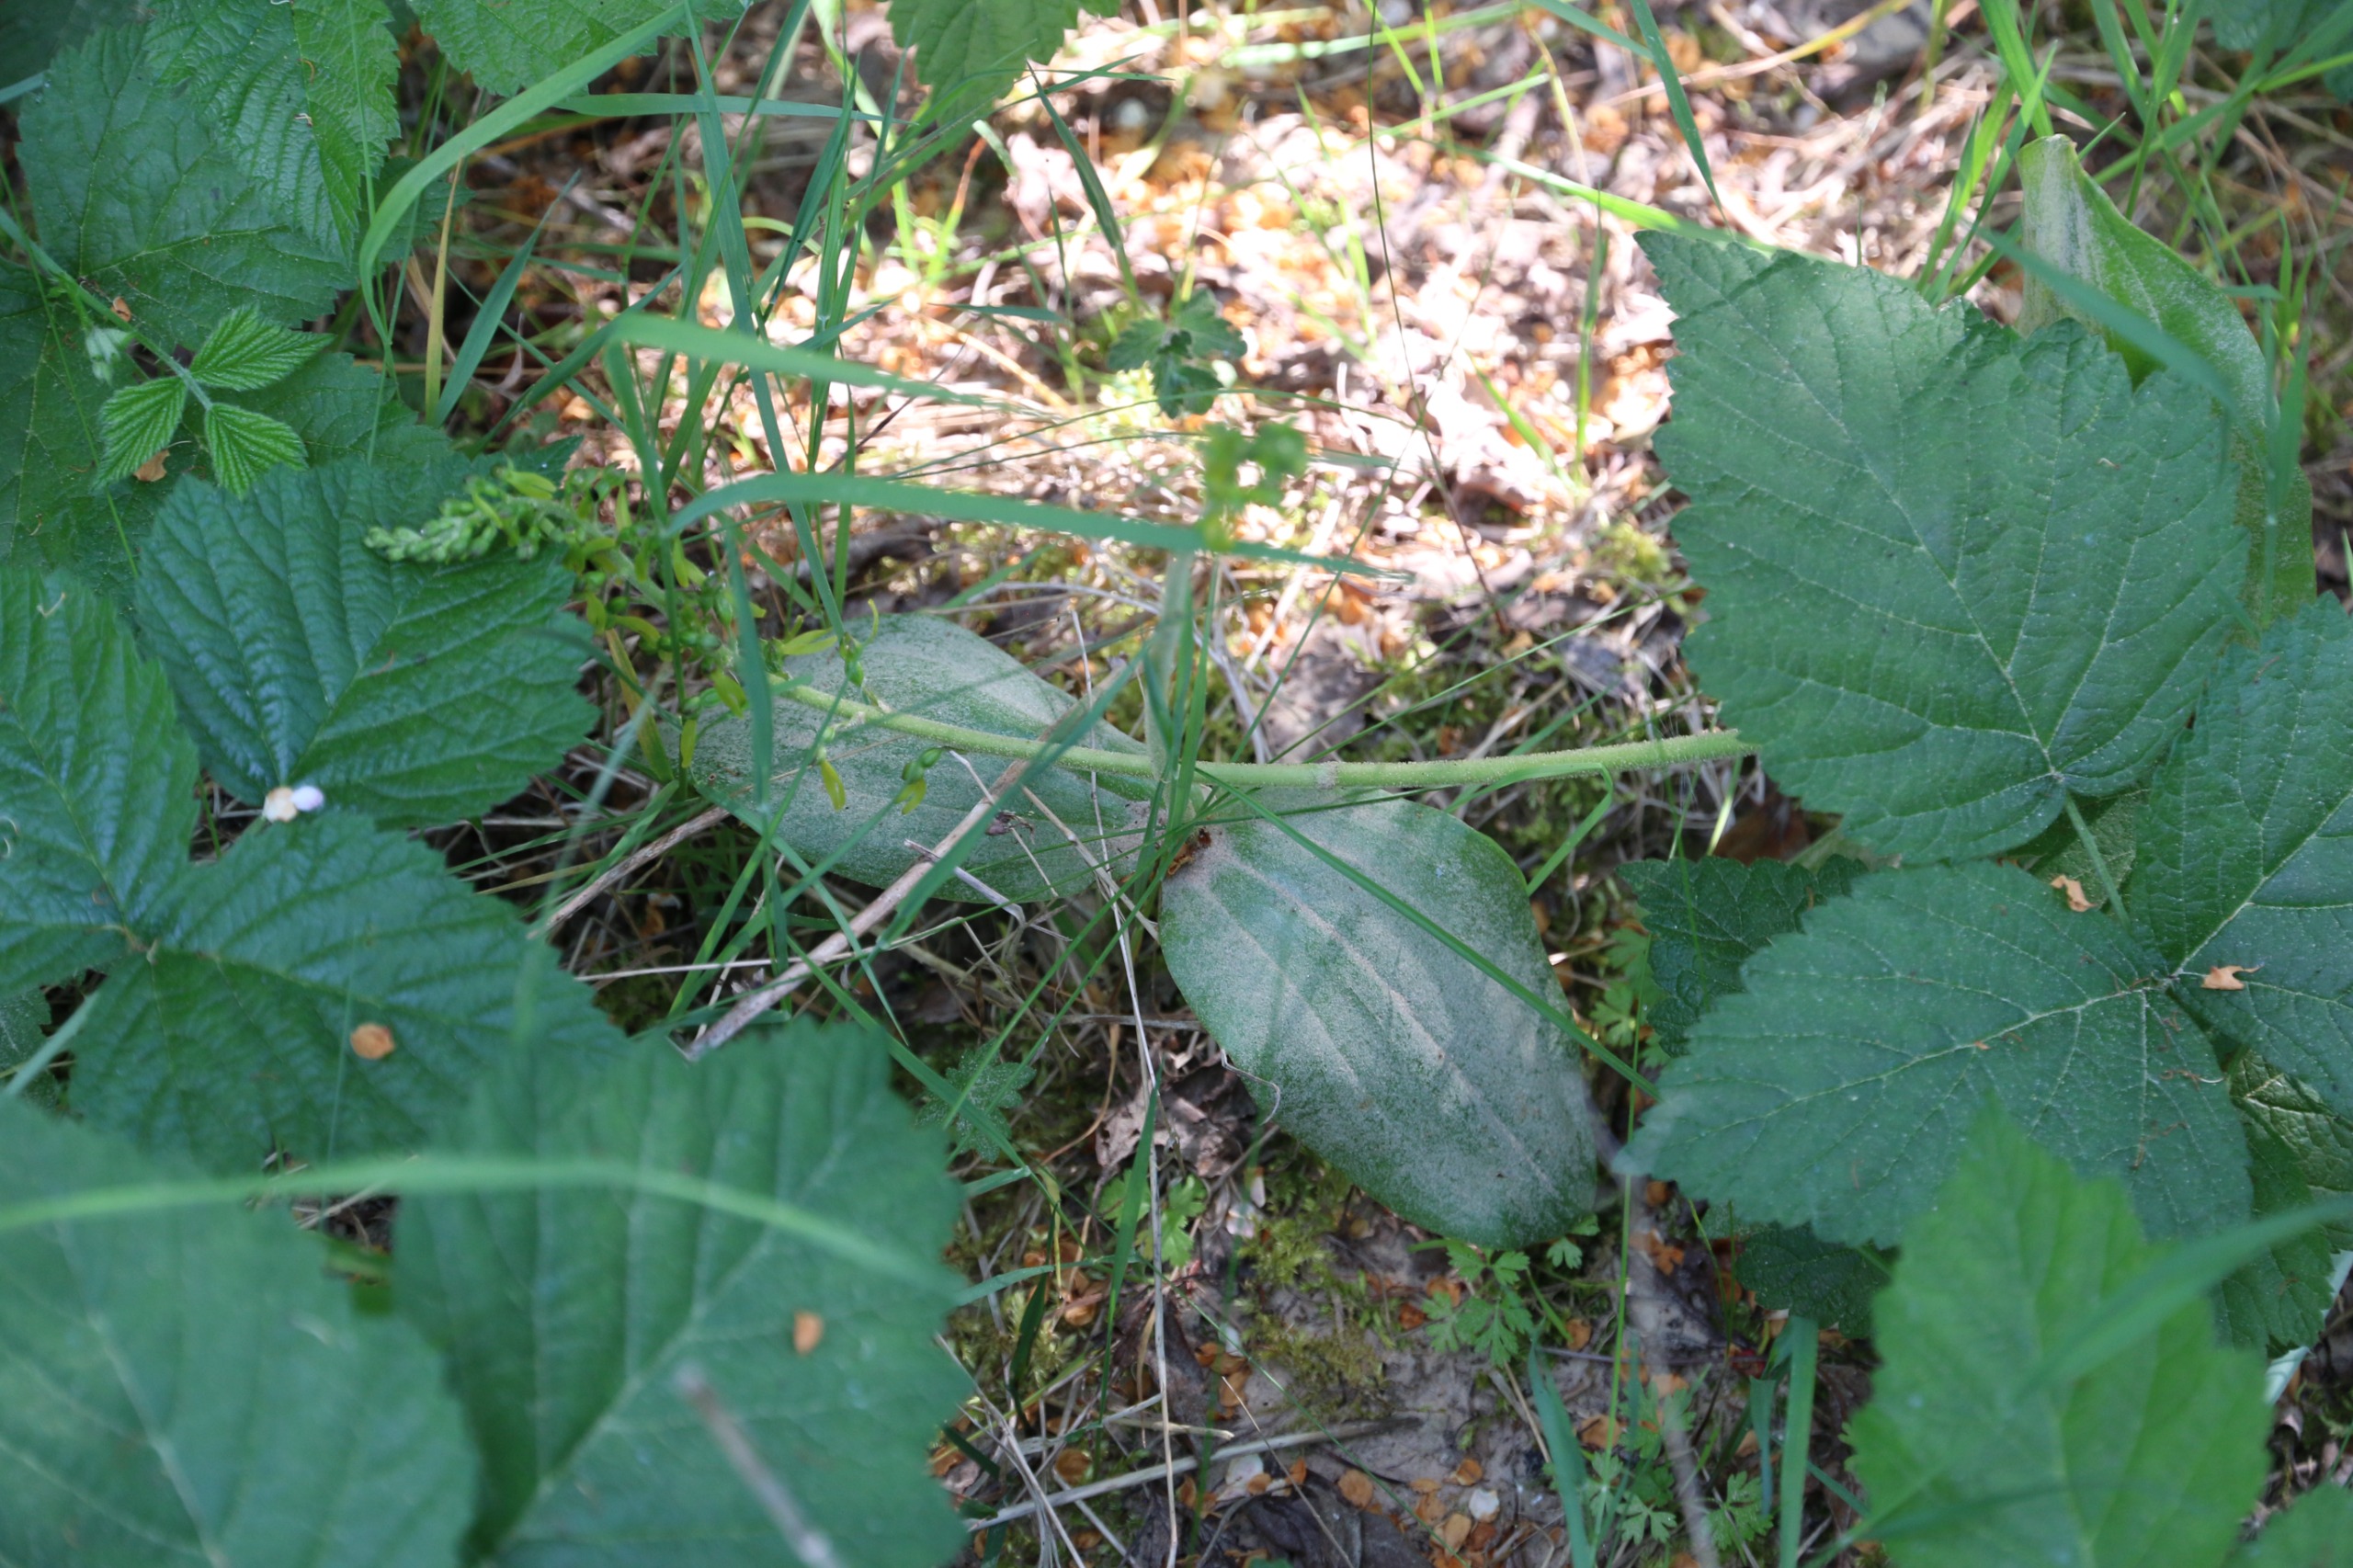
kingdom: Plantae
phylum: Tracheophyta
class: Liliopsida
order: Asparagales
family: Orchidaceae
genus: Neottia
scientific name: Neottia ovata
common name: Ægbladet fliglæbe
